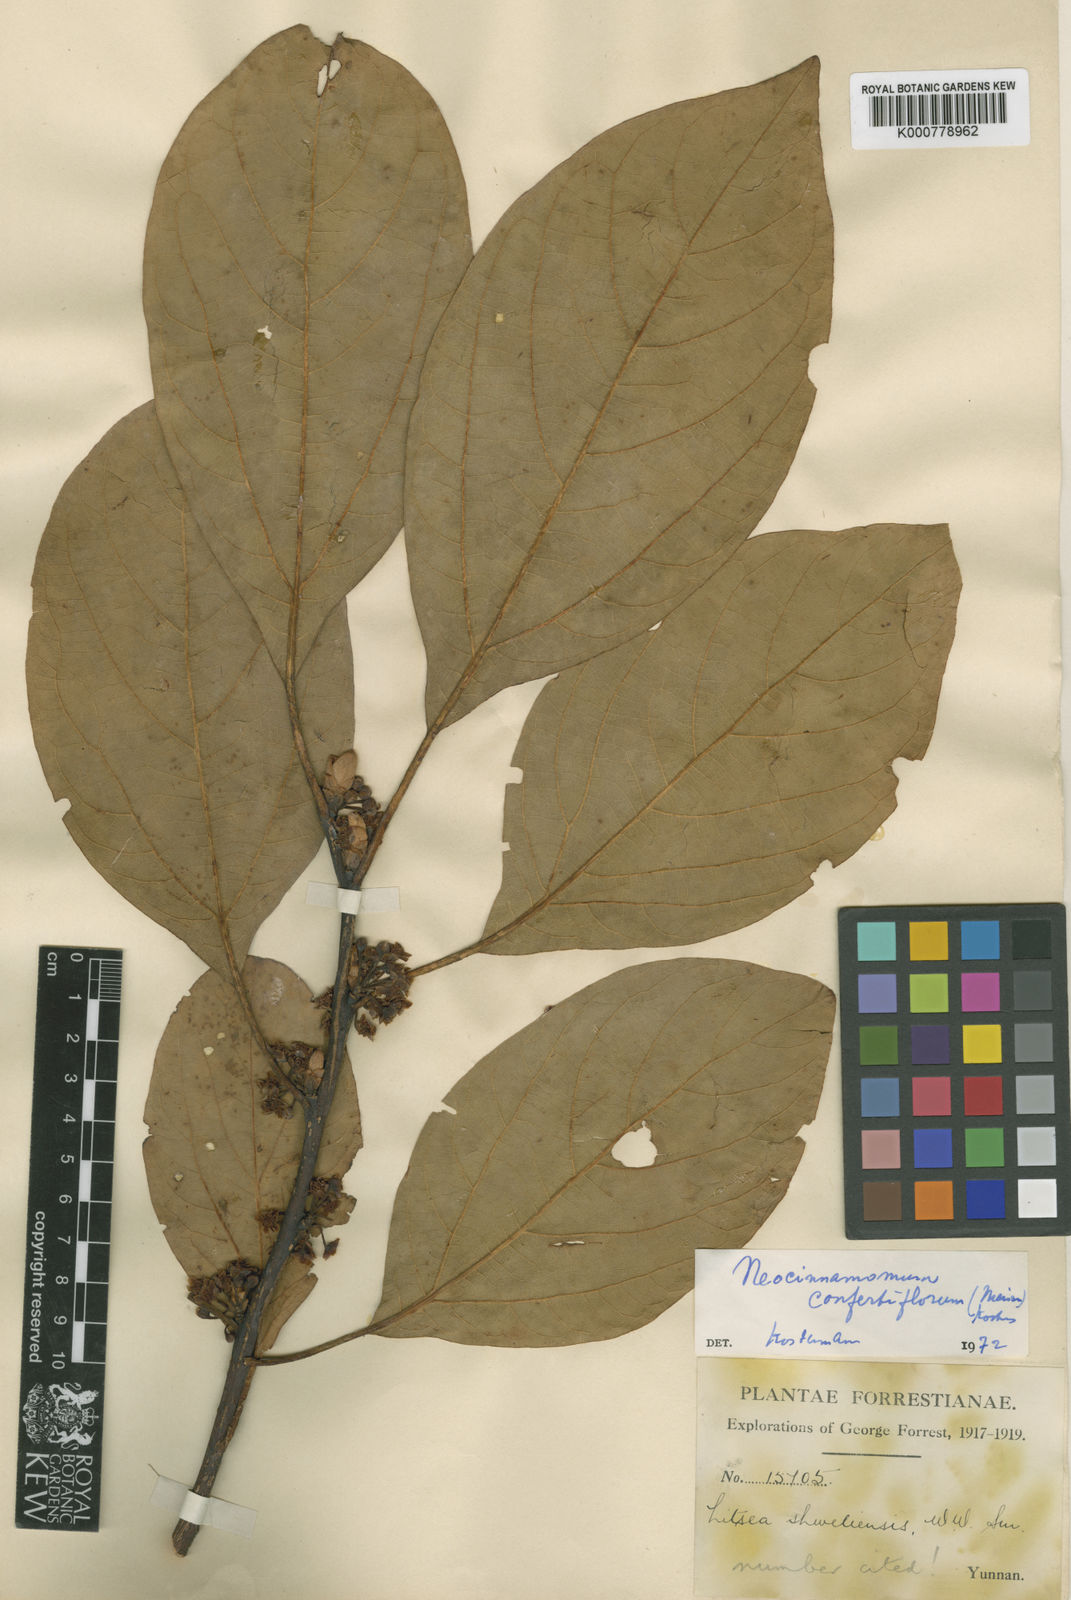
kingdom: Plantae
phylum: Tracheophyta
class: Magnoliopsida
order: Laurales
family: Lauraceae
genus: Parasassafras
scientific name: Parasassafras confertiflora
